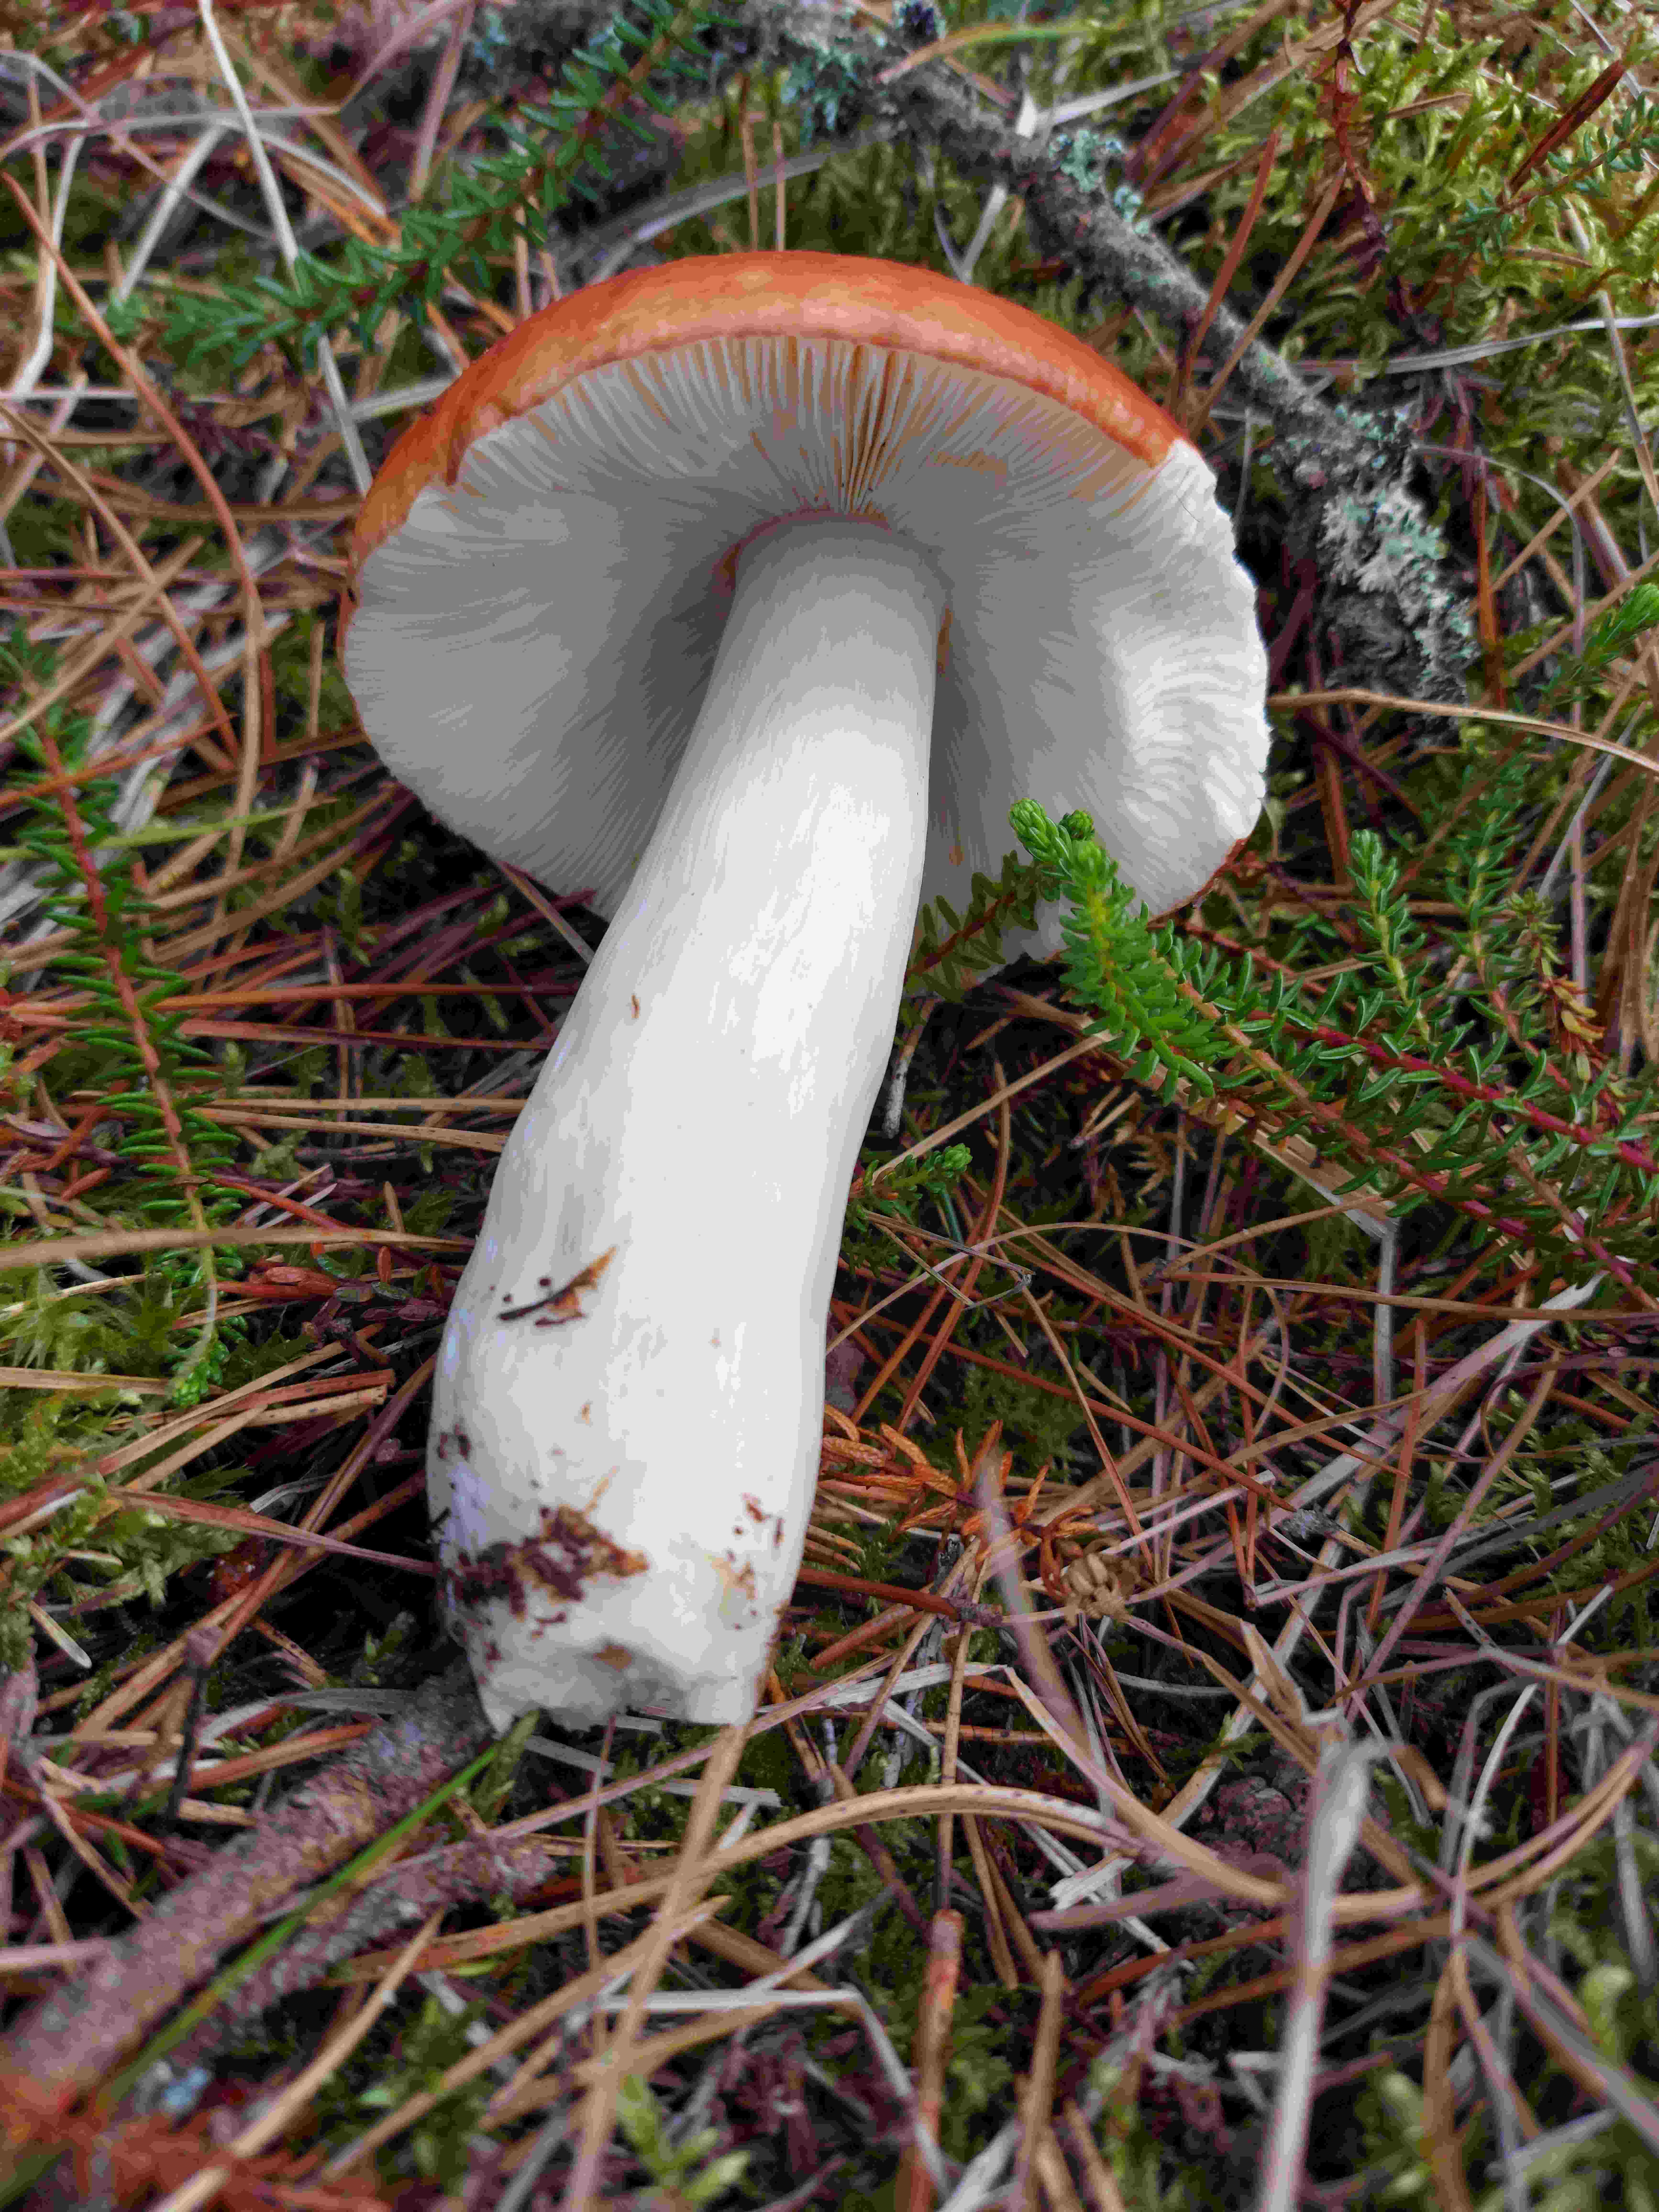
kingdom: Fungi
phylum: Basidiomycota
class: Agaricomycetes
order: Russulales
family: Russulaceae
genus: Russula
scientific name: Russula paludosa
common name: prægtig skørhat
